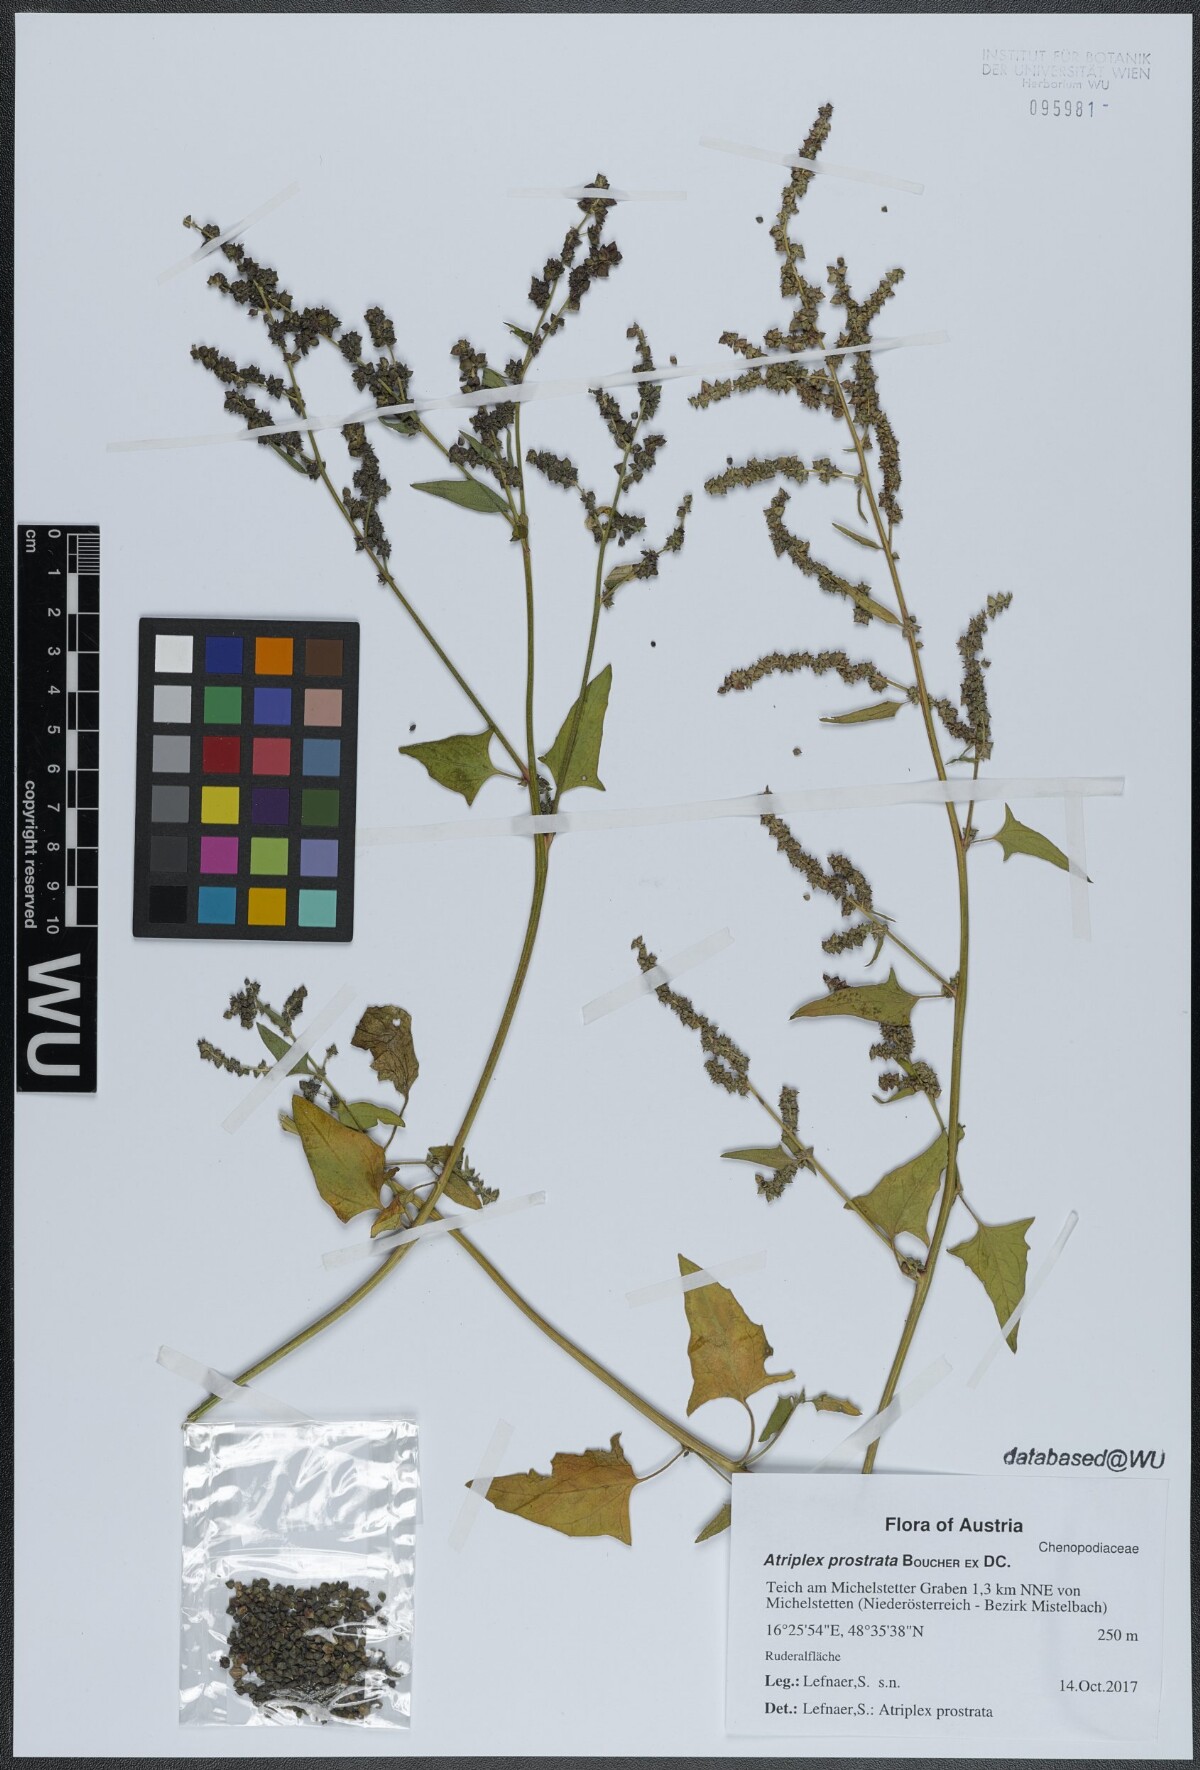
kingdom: Plantae
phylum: Tracheophyta
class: Magnoliopsida
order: Caryophyllales
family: Amaranthaceae
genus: Atriplex
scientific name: Atriplex prostrata
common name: Spear-leaved orache
